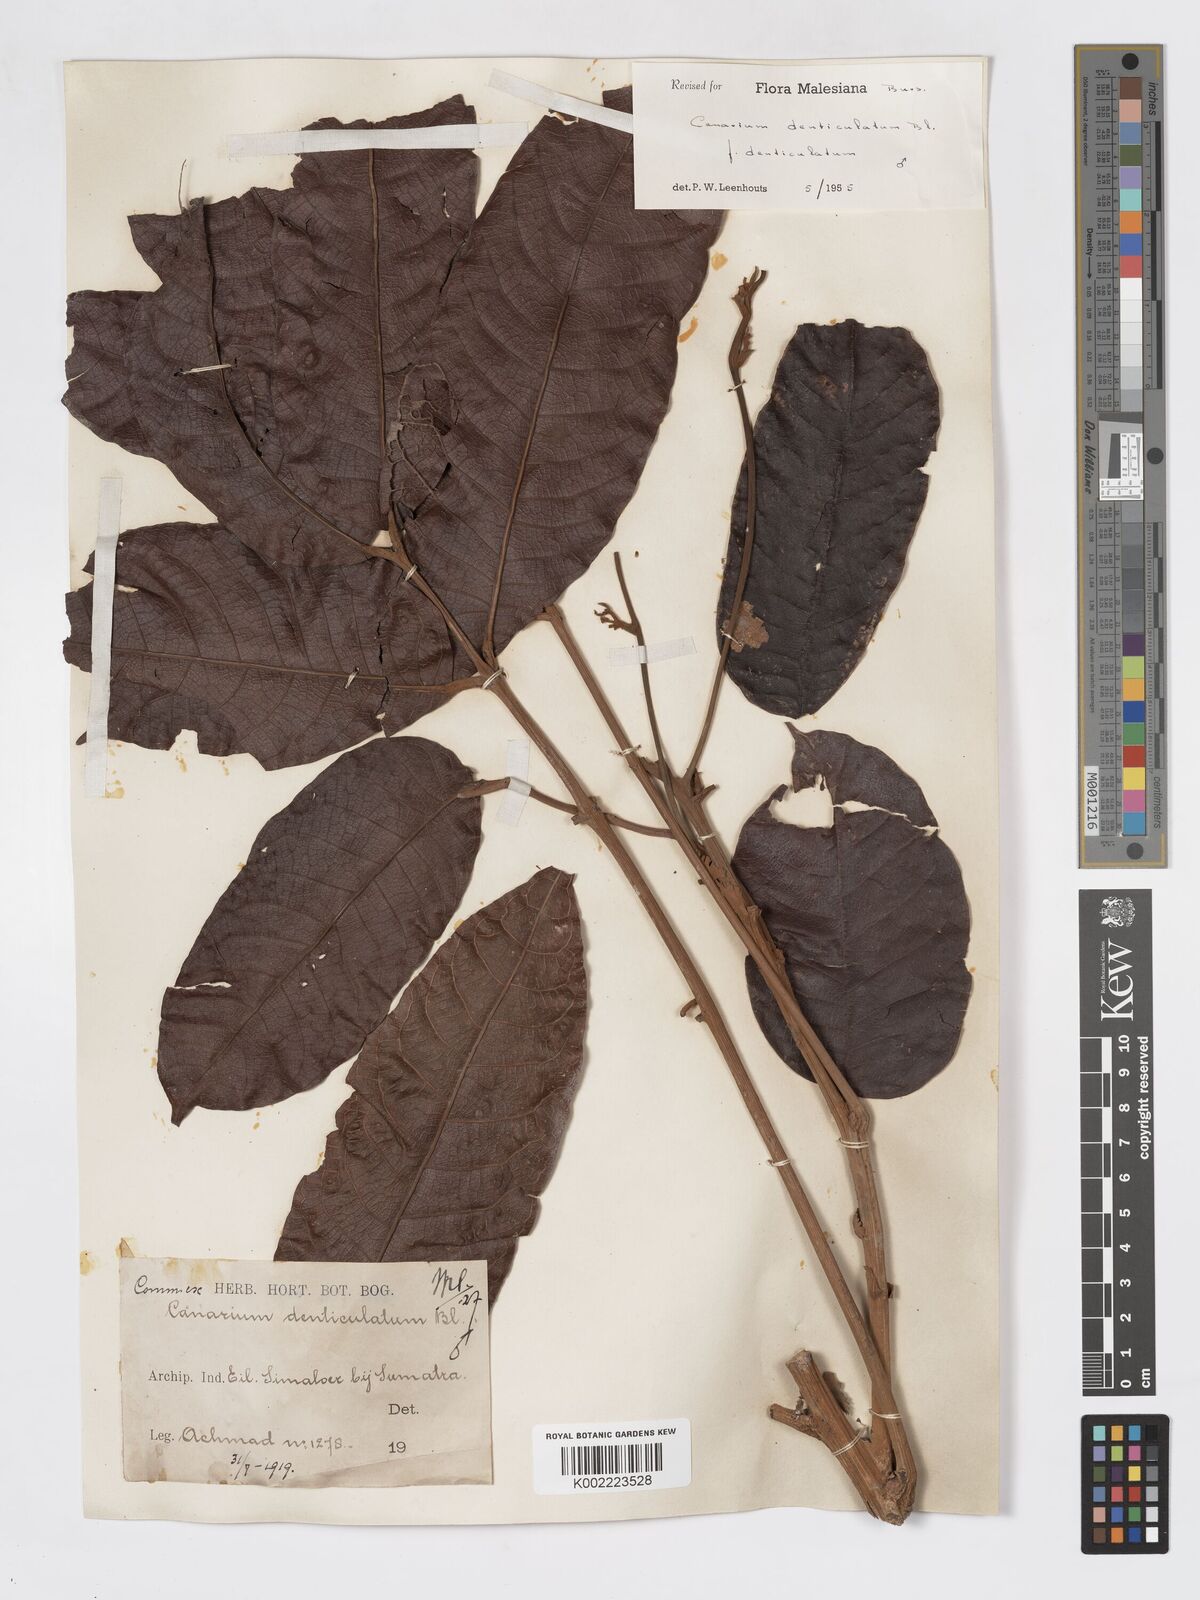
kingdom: Plantae
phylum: Tracheophyta
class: Magnoliopsida
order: Sapindales
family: Burseraceae
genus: Canarium
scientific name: Canarium denticulatum
